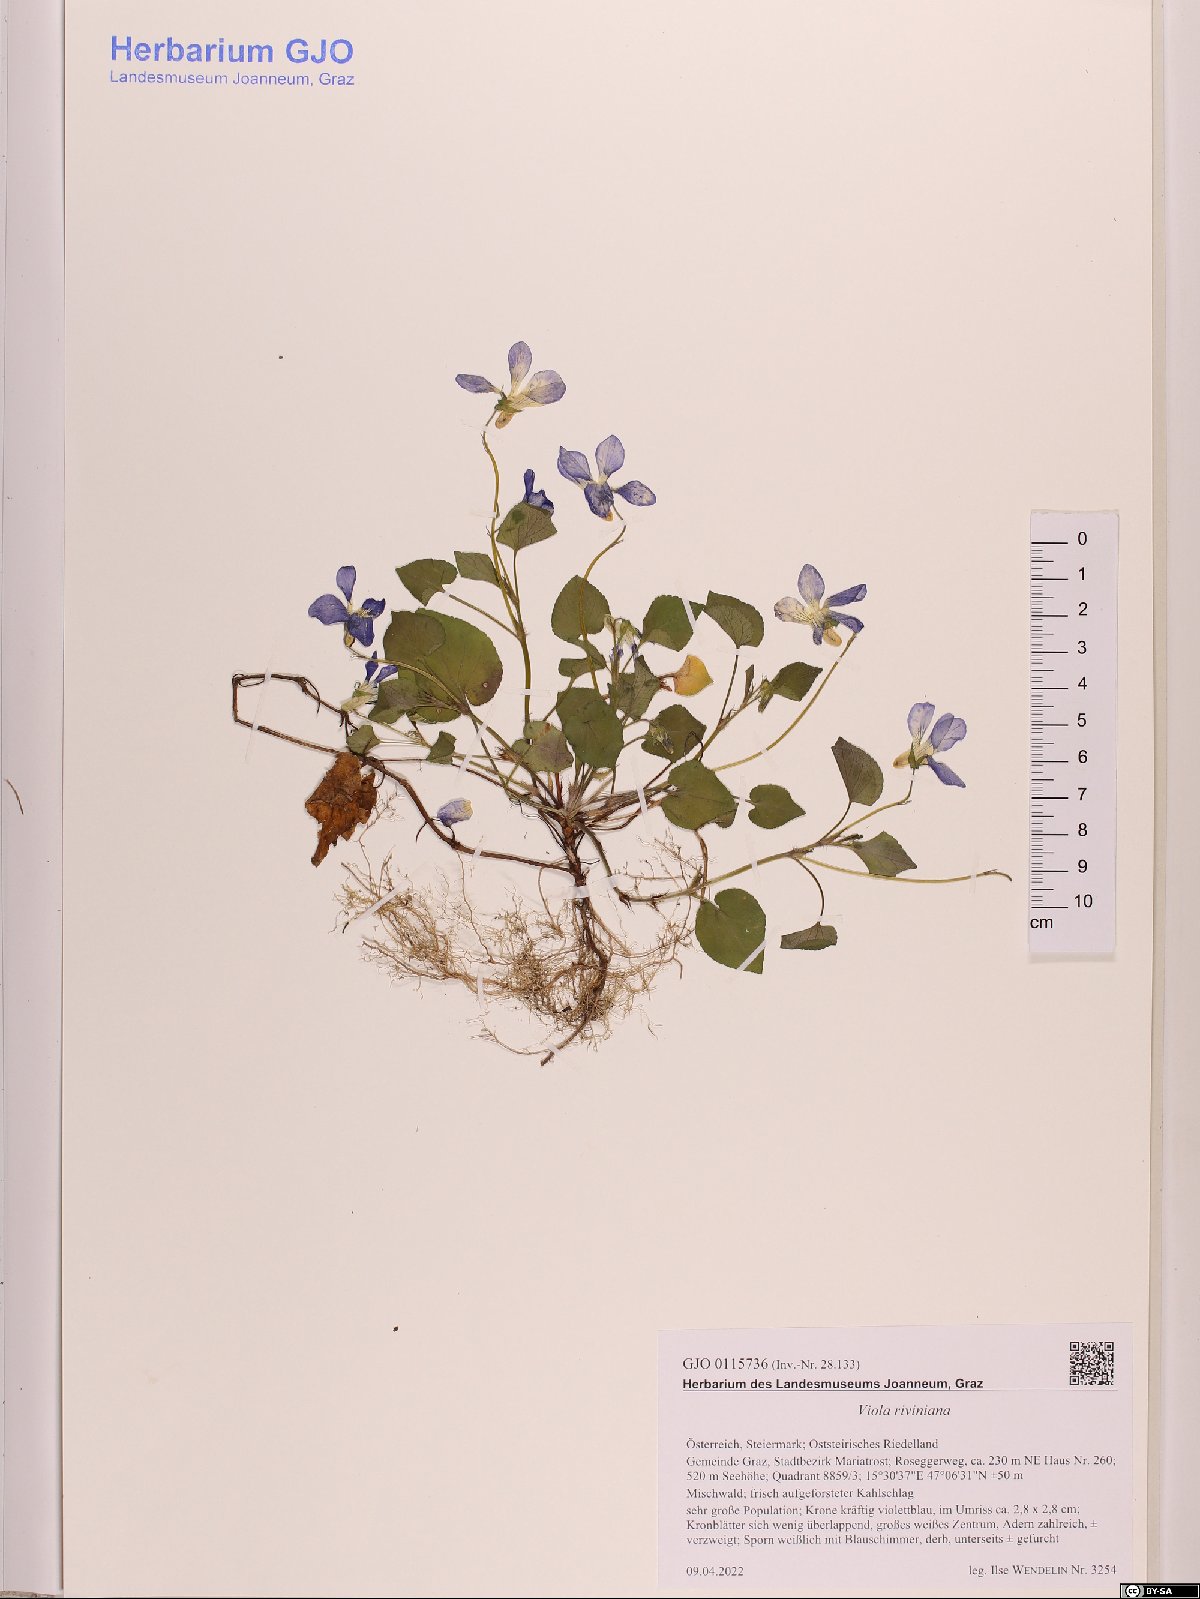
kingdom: Plantae
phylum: Tracheophyta
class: Magnoliopsida
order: Malpighiales
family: Violaceae
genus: Viola
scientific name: Viola riviniana
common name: Common dog-violet
